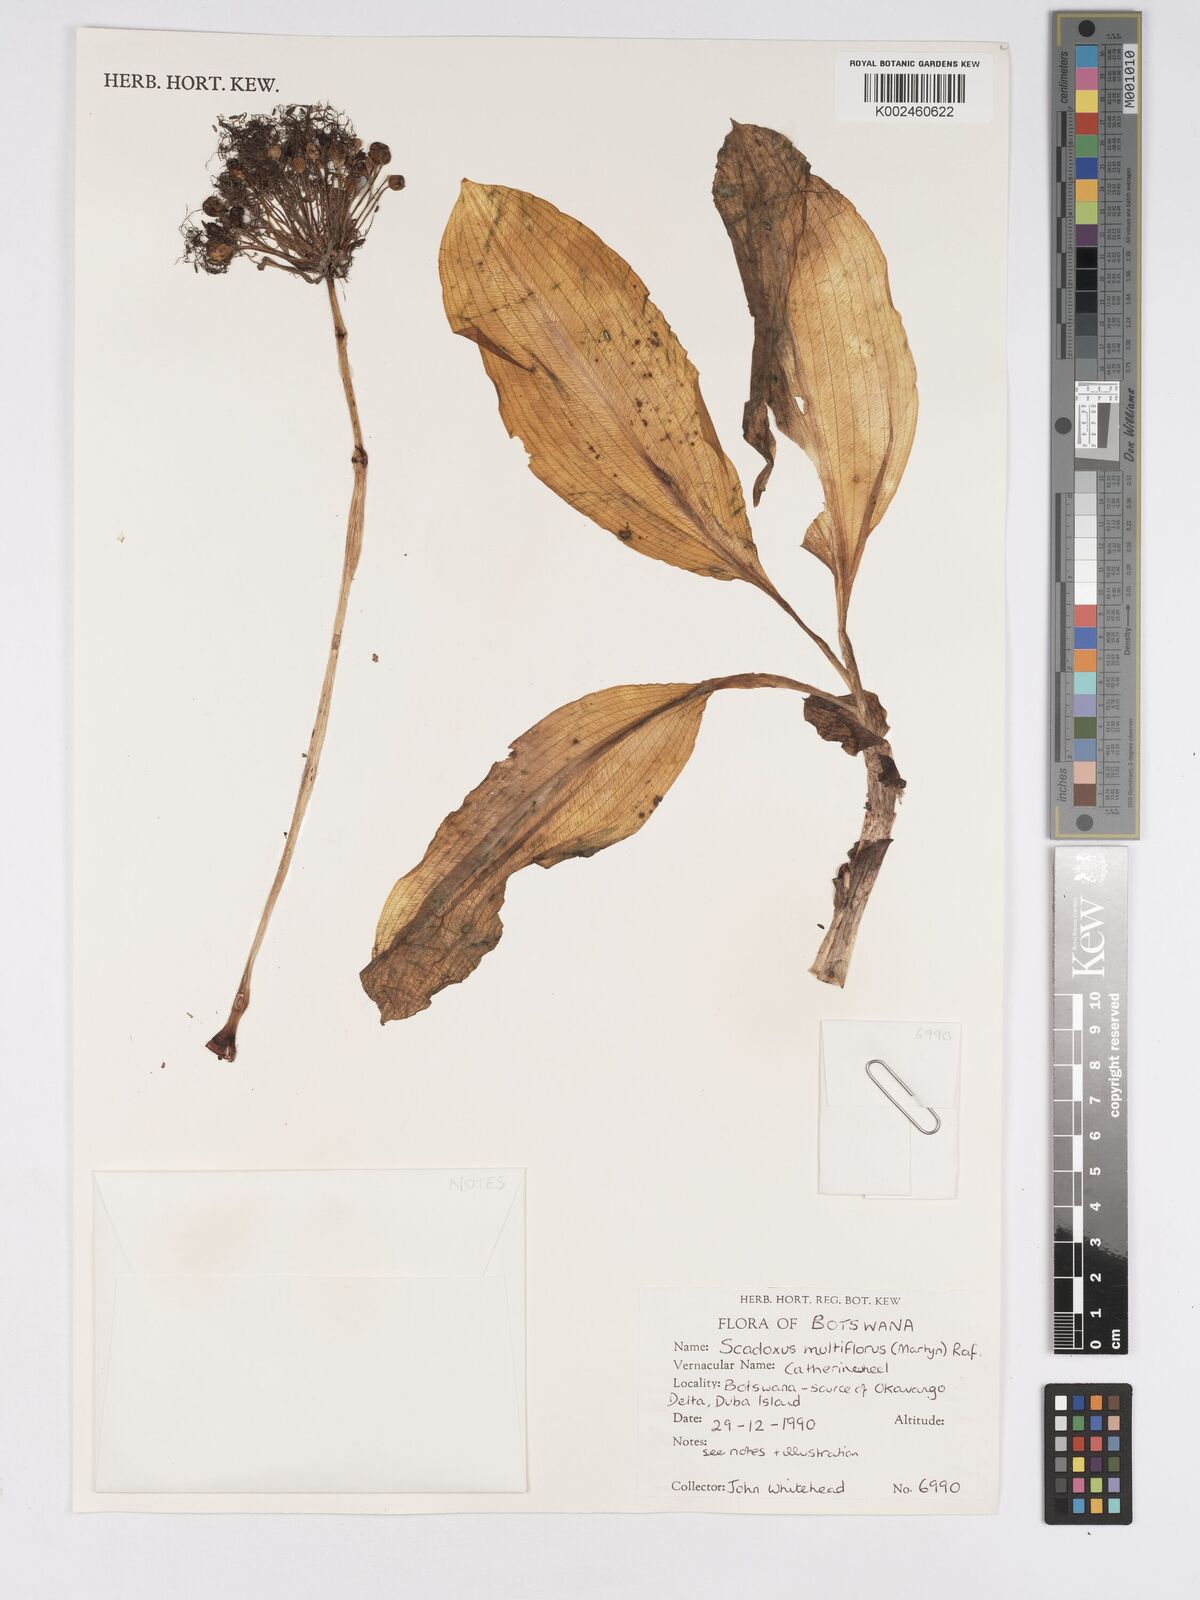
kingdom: Plantae
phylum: Tracheophyta
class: Liliopsida
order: Asparagales
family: Amaryllidaceae
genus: Scadoxus
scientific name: Scadoxus multiflorus
